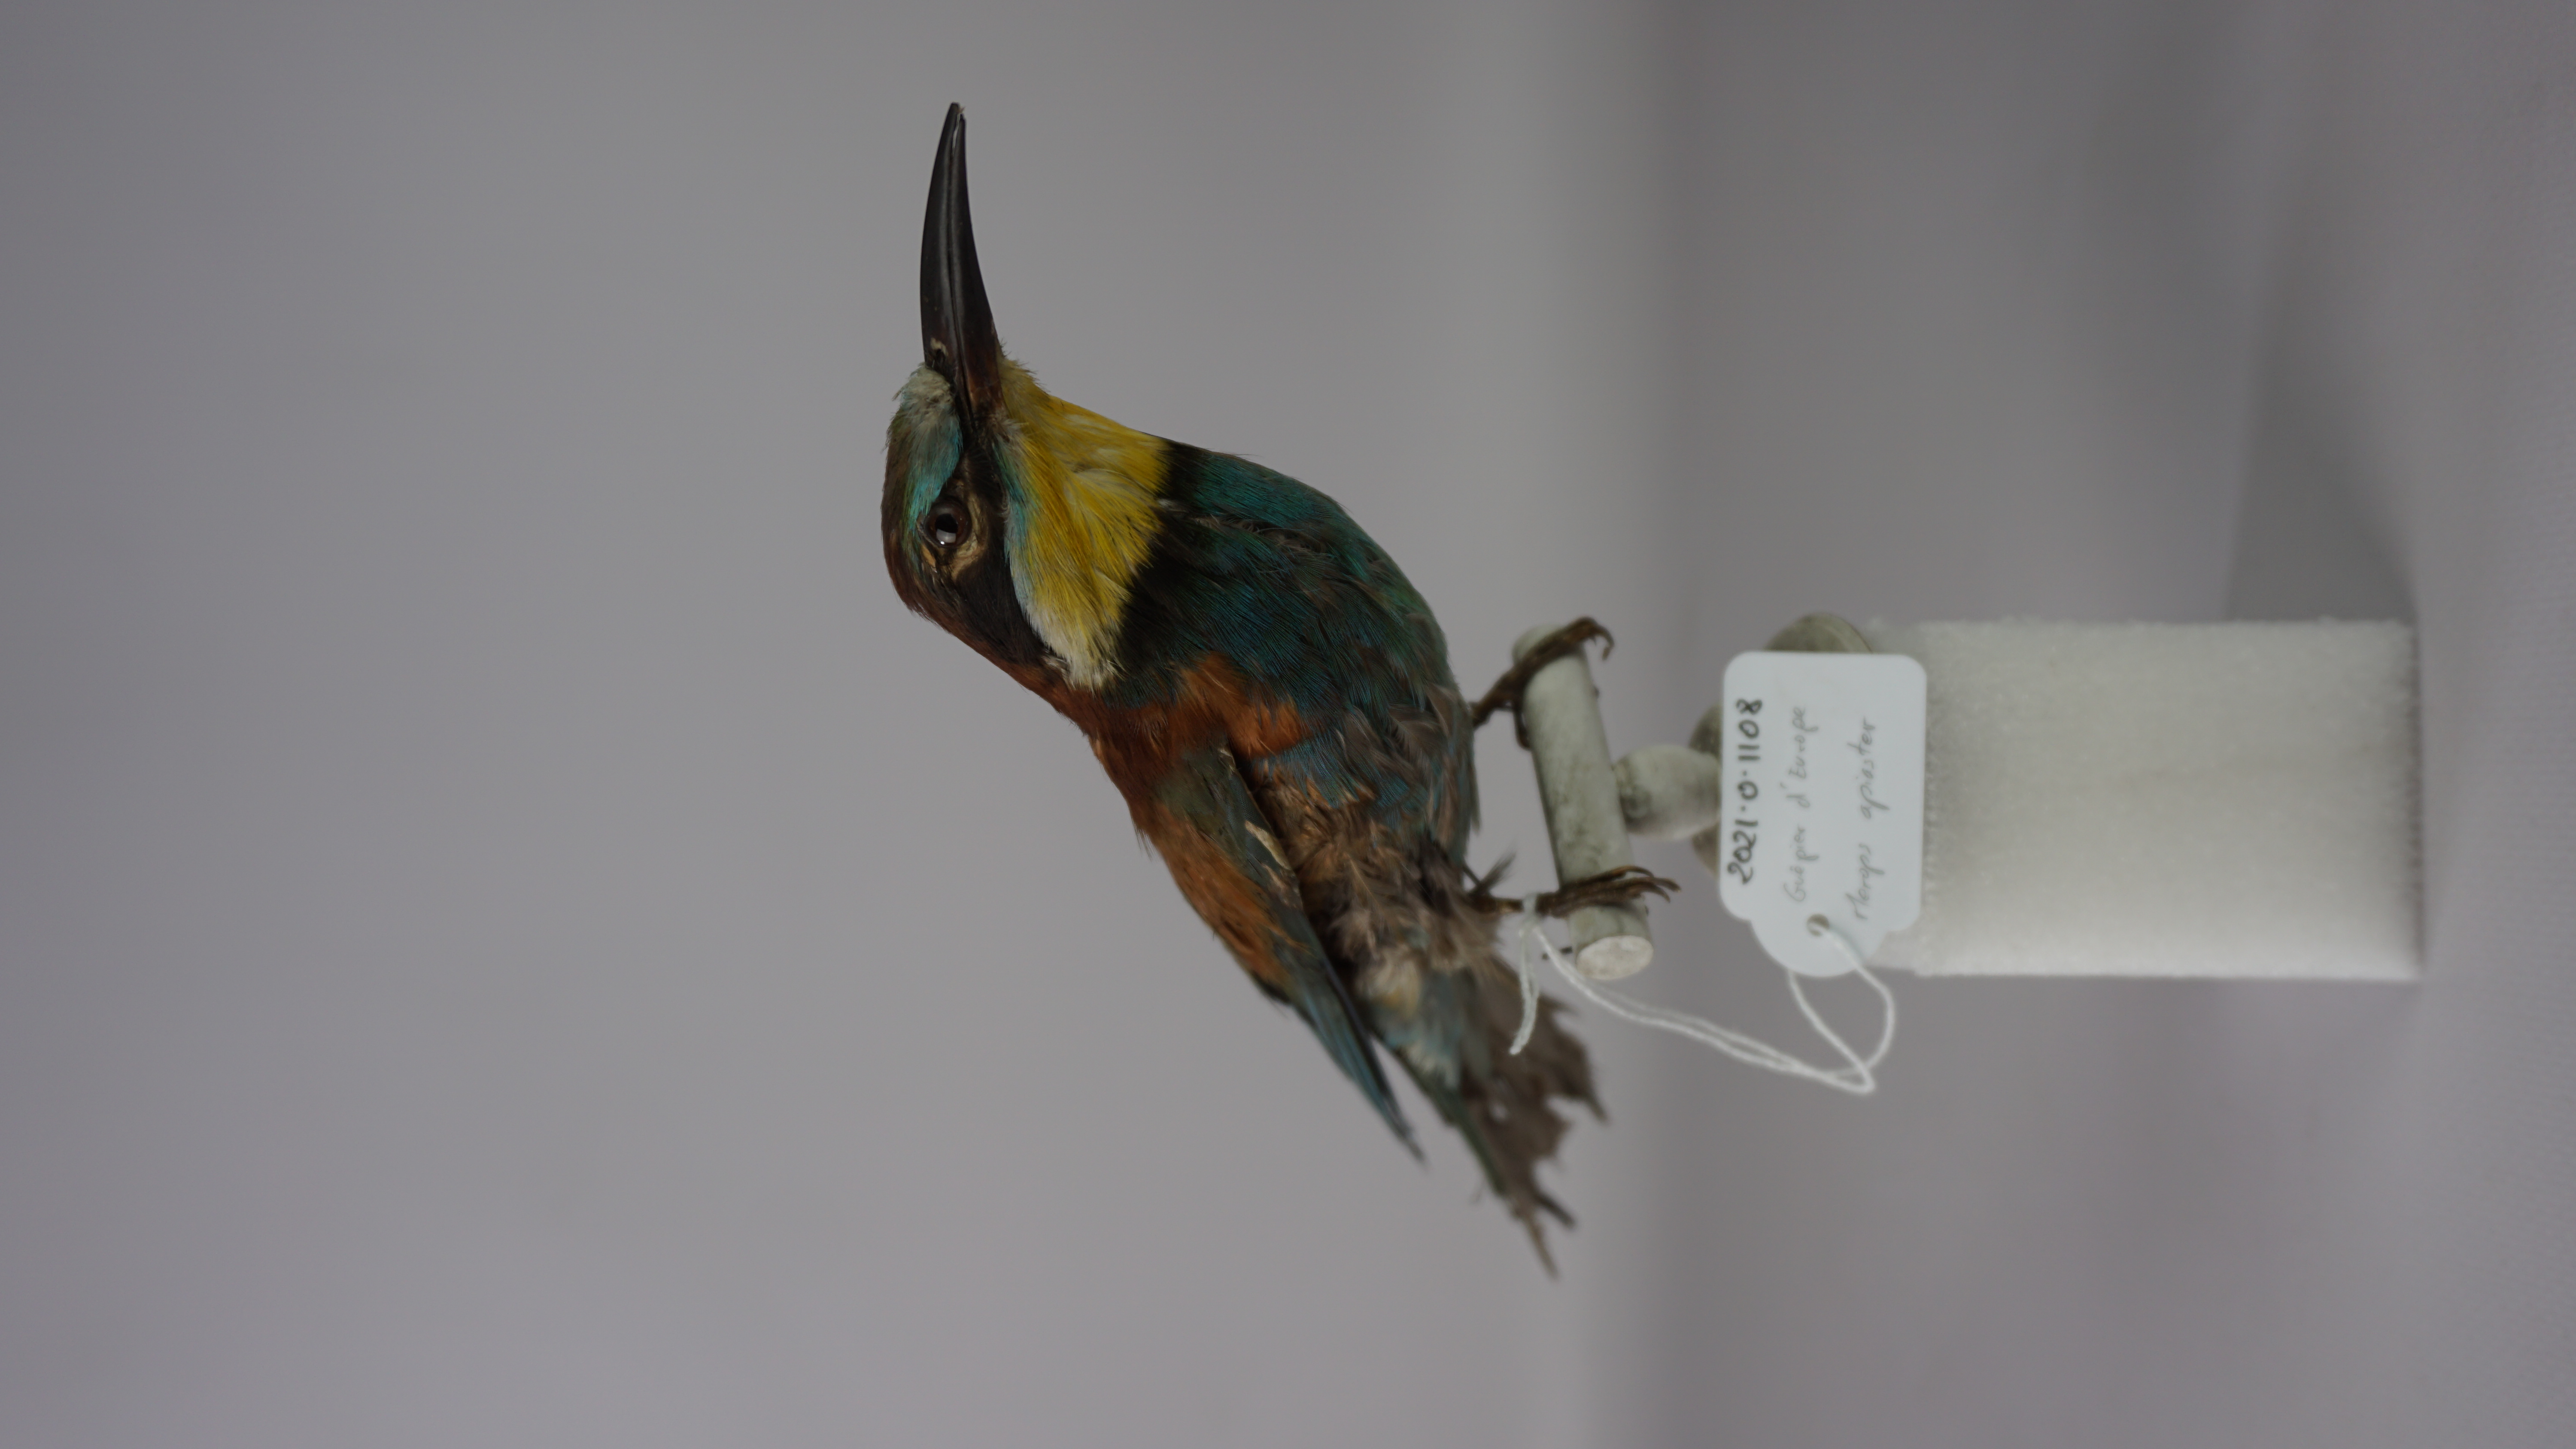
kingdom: Animalia
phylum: Chordata
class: Aves
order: Coraciiformes
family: Meropidae
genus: Merops
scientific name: Merops apiaster
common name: European bee-eater
